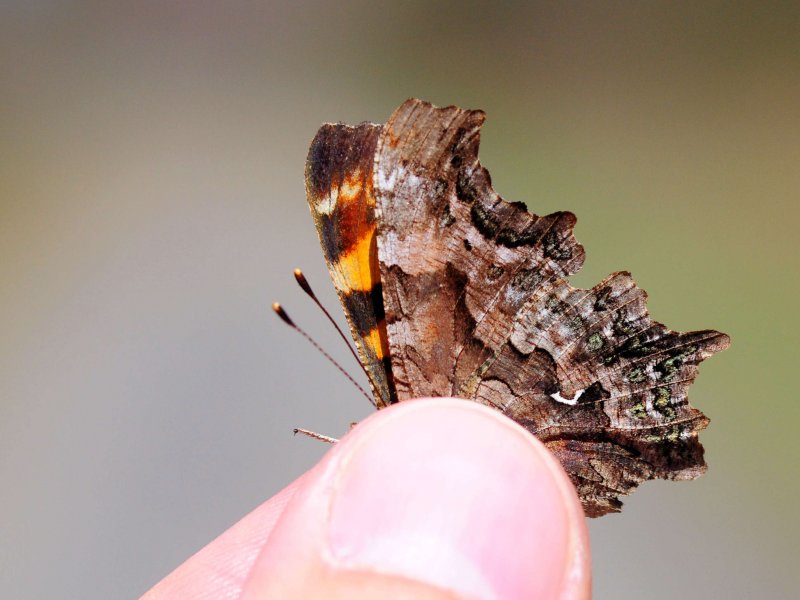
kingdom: Animalia
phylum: Arthropoda
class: Insecta
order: Lepidoptera
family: Nymphalidae
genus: Polygonia
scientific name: Polygonia faunus
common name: Green Comma
